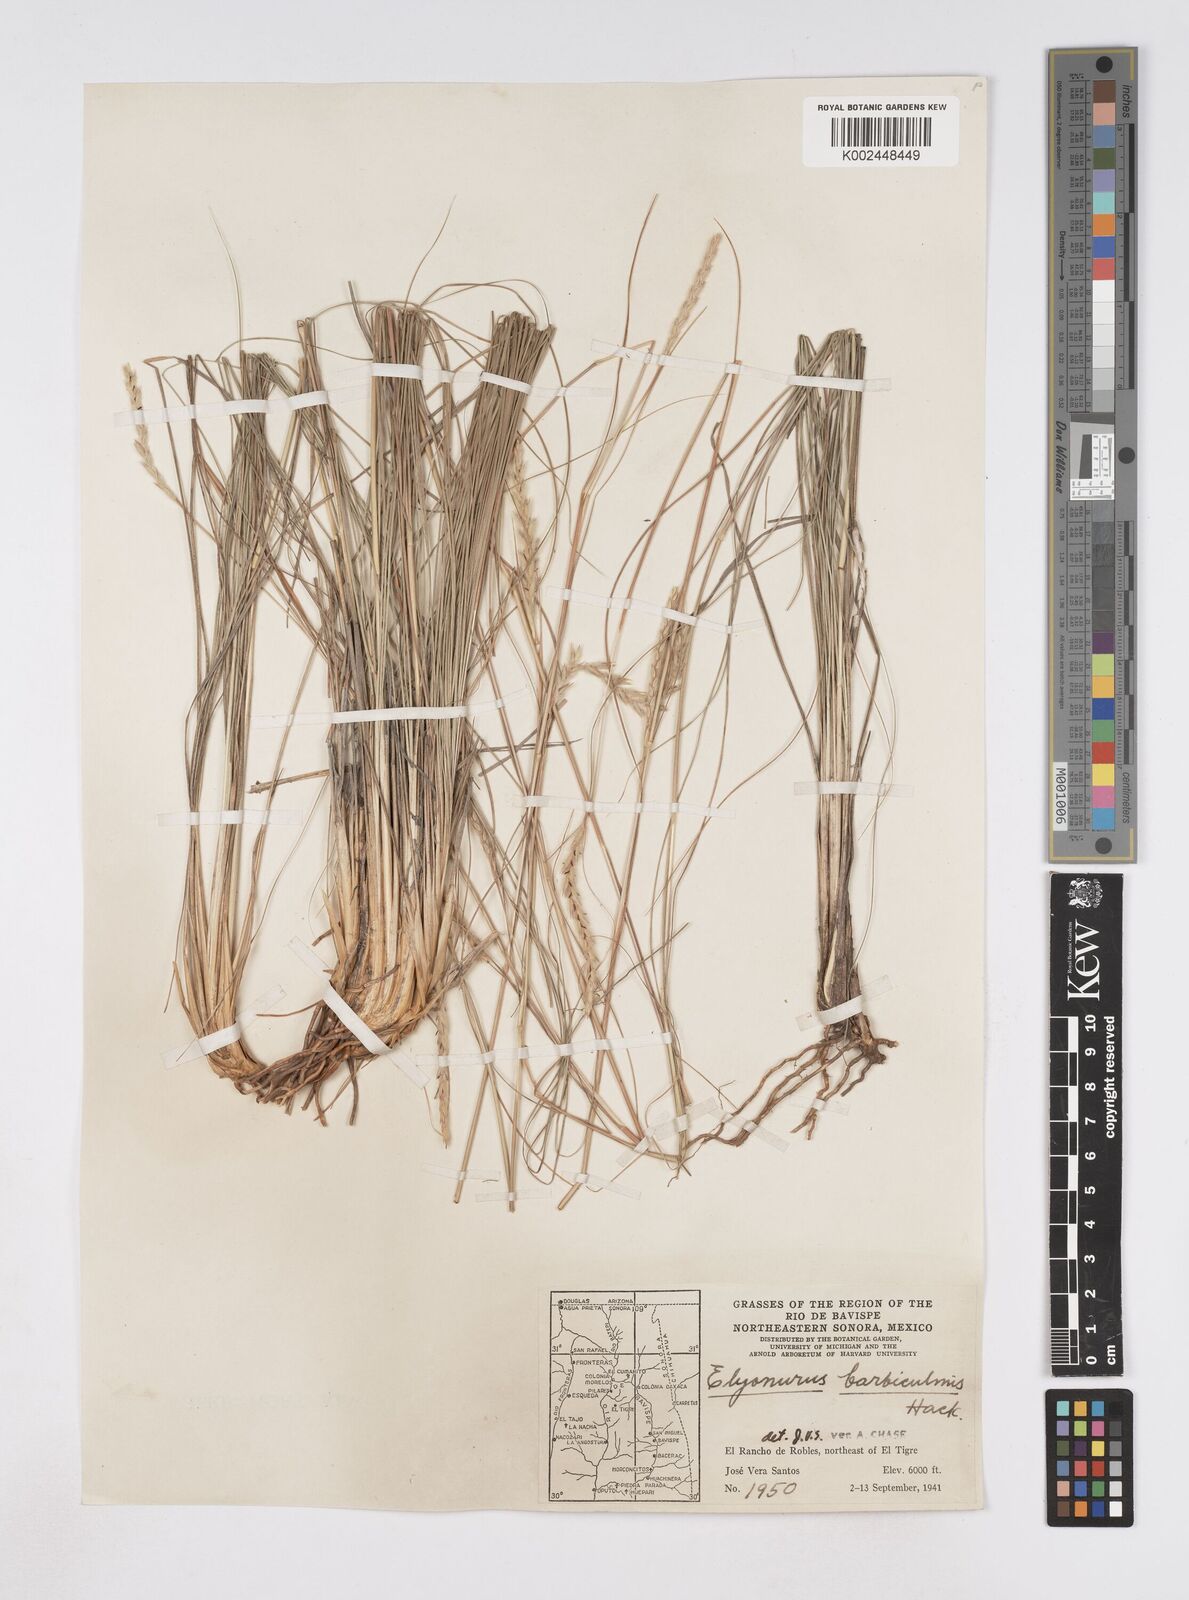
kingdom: Plantae
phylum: Tracheophyta
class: Liliopsida
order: Poales
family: Poaceae
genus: Elionurus
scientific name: Elionurus barbiculmis
